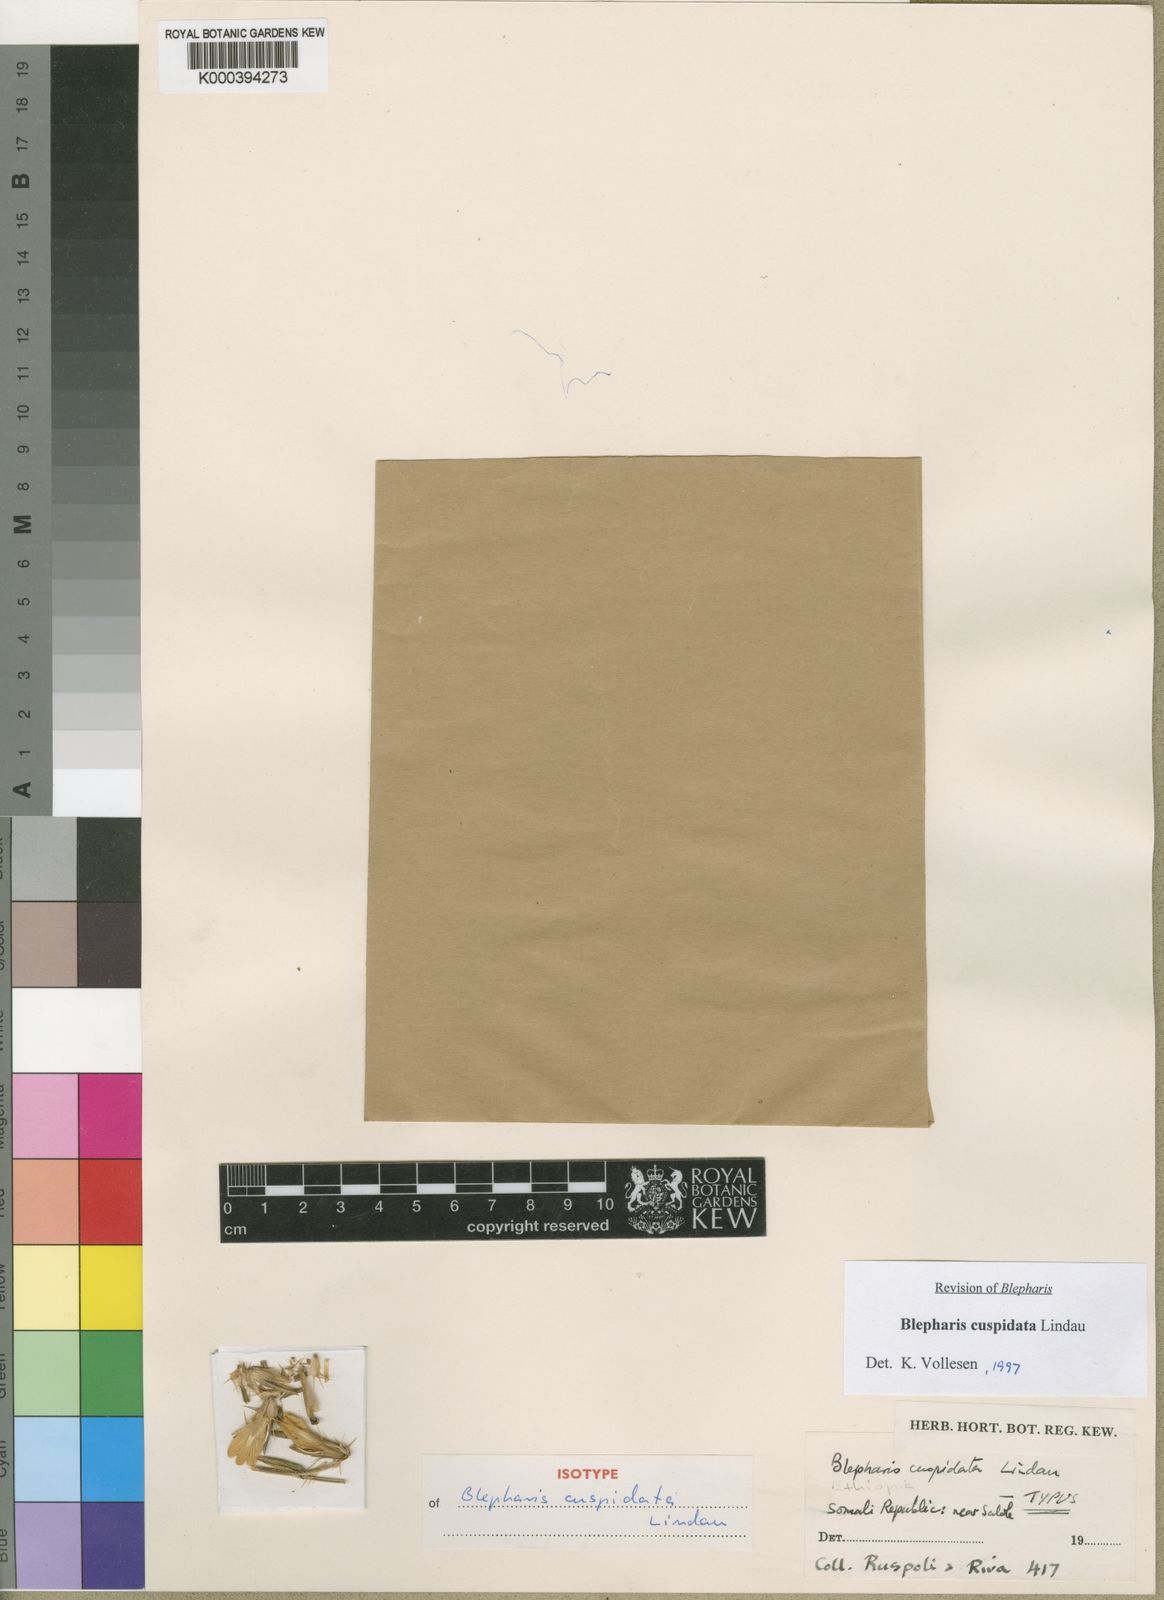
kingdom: Plantae
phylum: Tracheophyta
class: Magnoliopsida
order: Lamiales
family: Acanthaceae
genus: Blepharis
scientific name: Blepharis cuspidata
